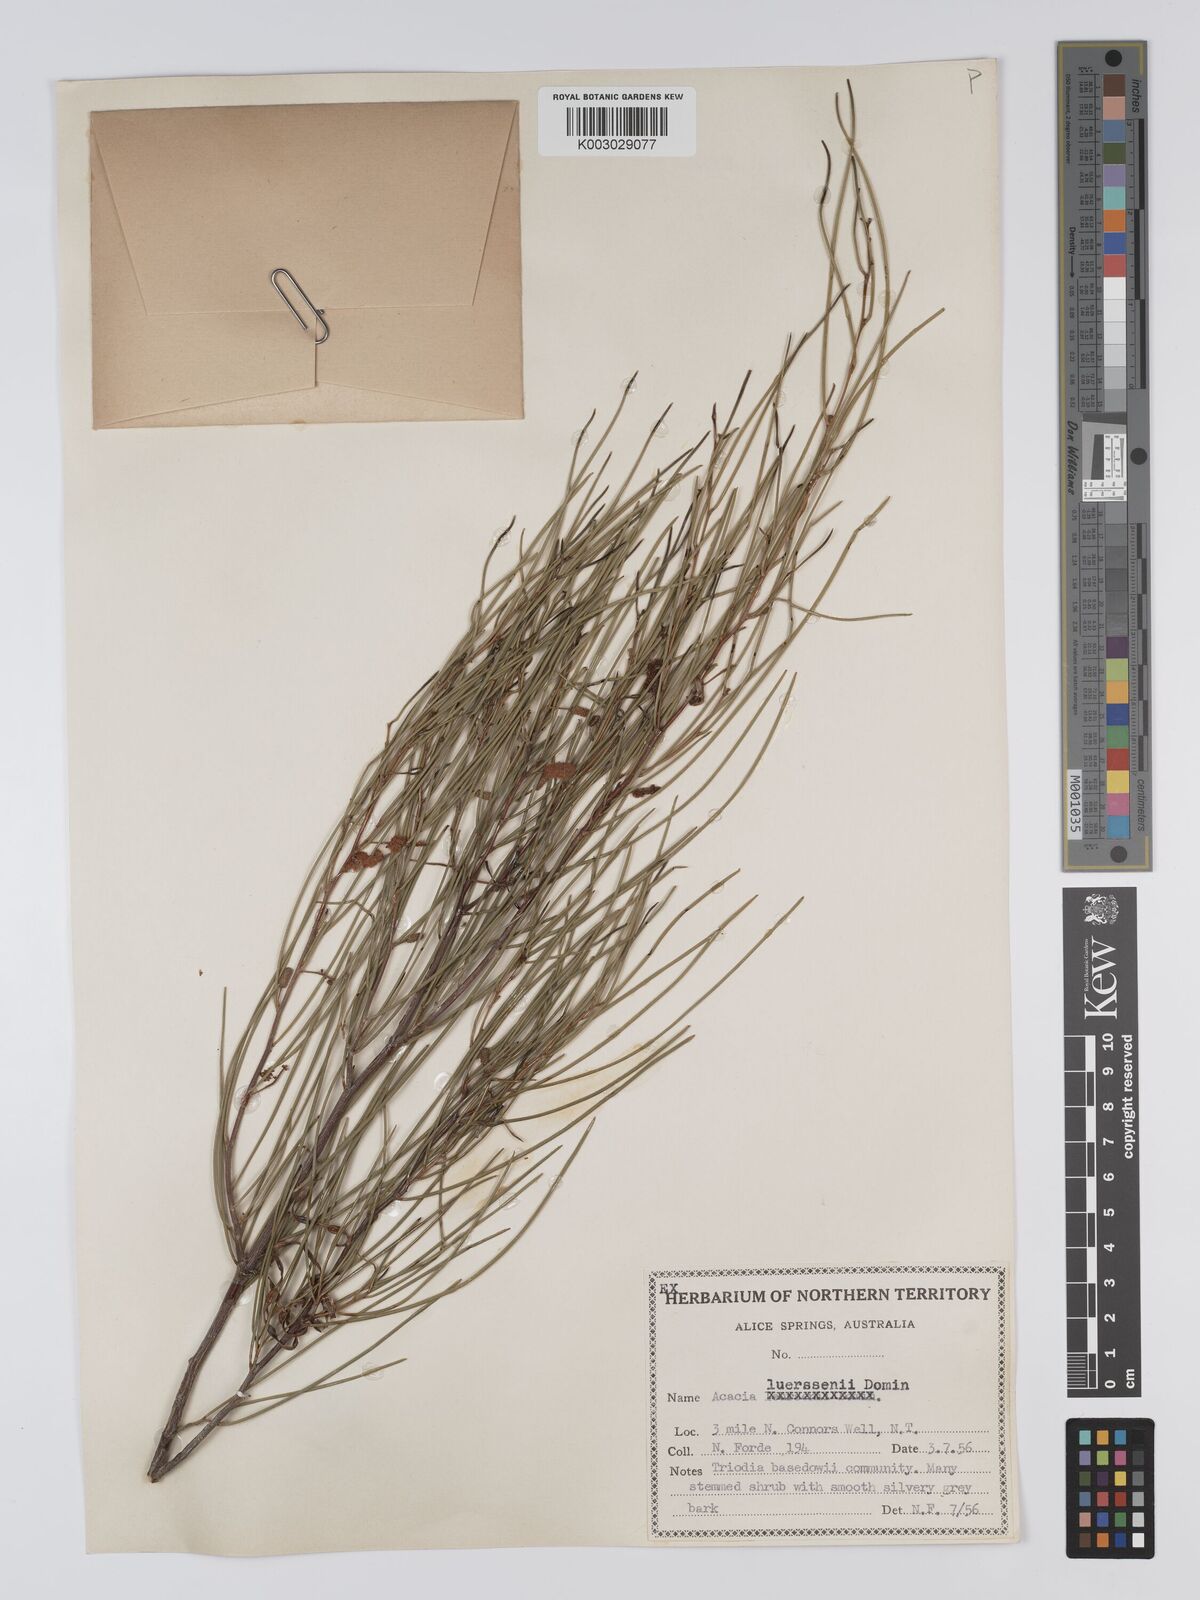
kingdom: Plantae
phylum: Tracheophyta
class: Magnoliopsida
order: Fabales
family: Fabaceae
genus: Acacia
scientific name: Acacia tenuissima
